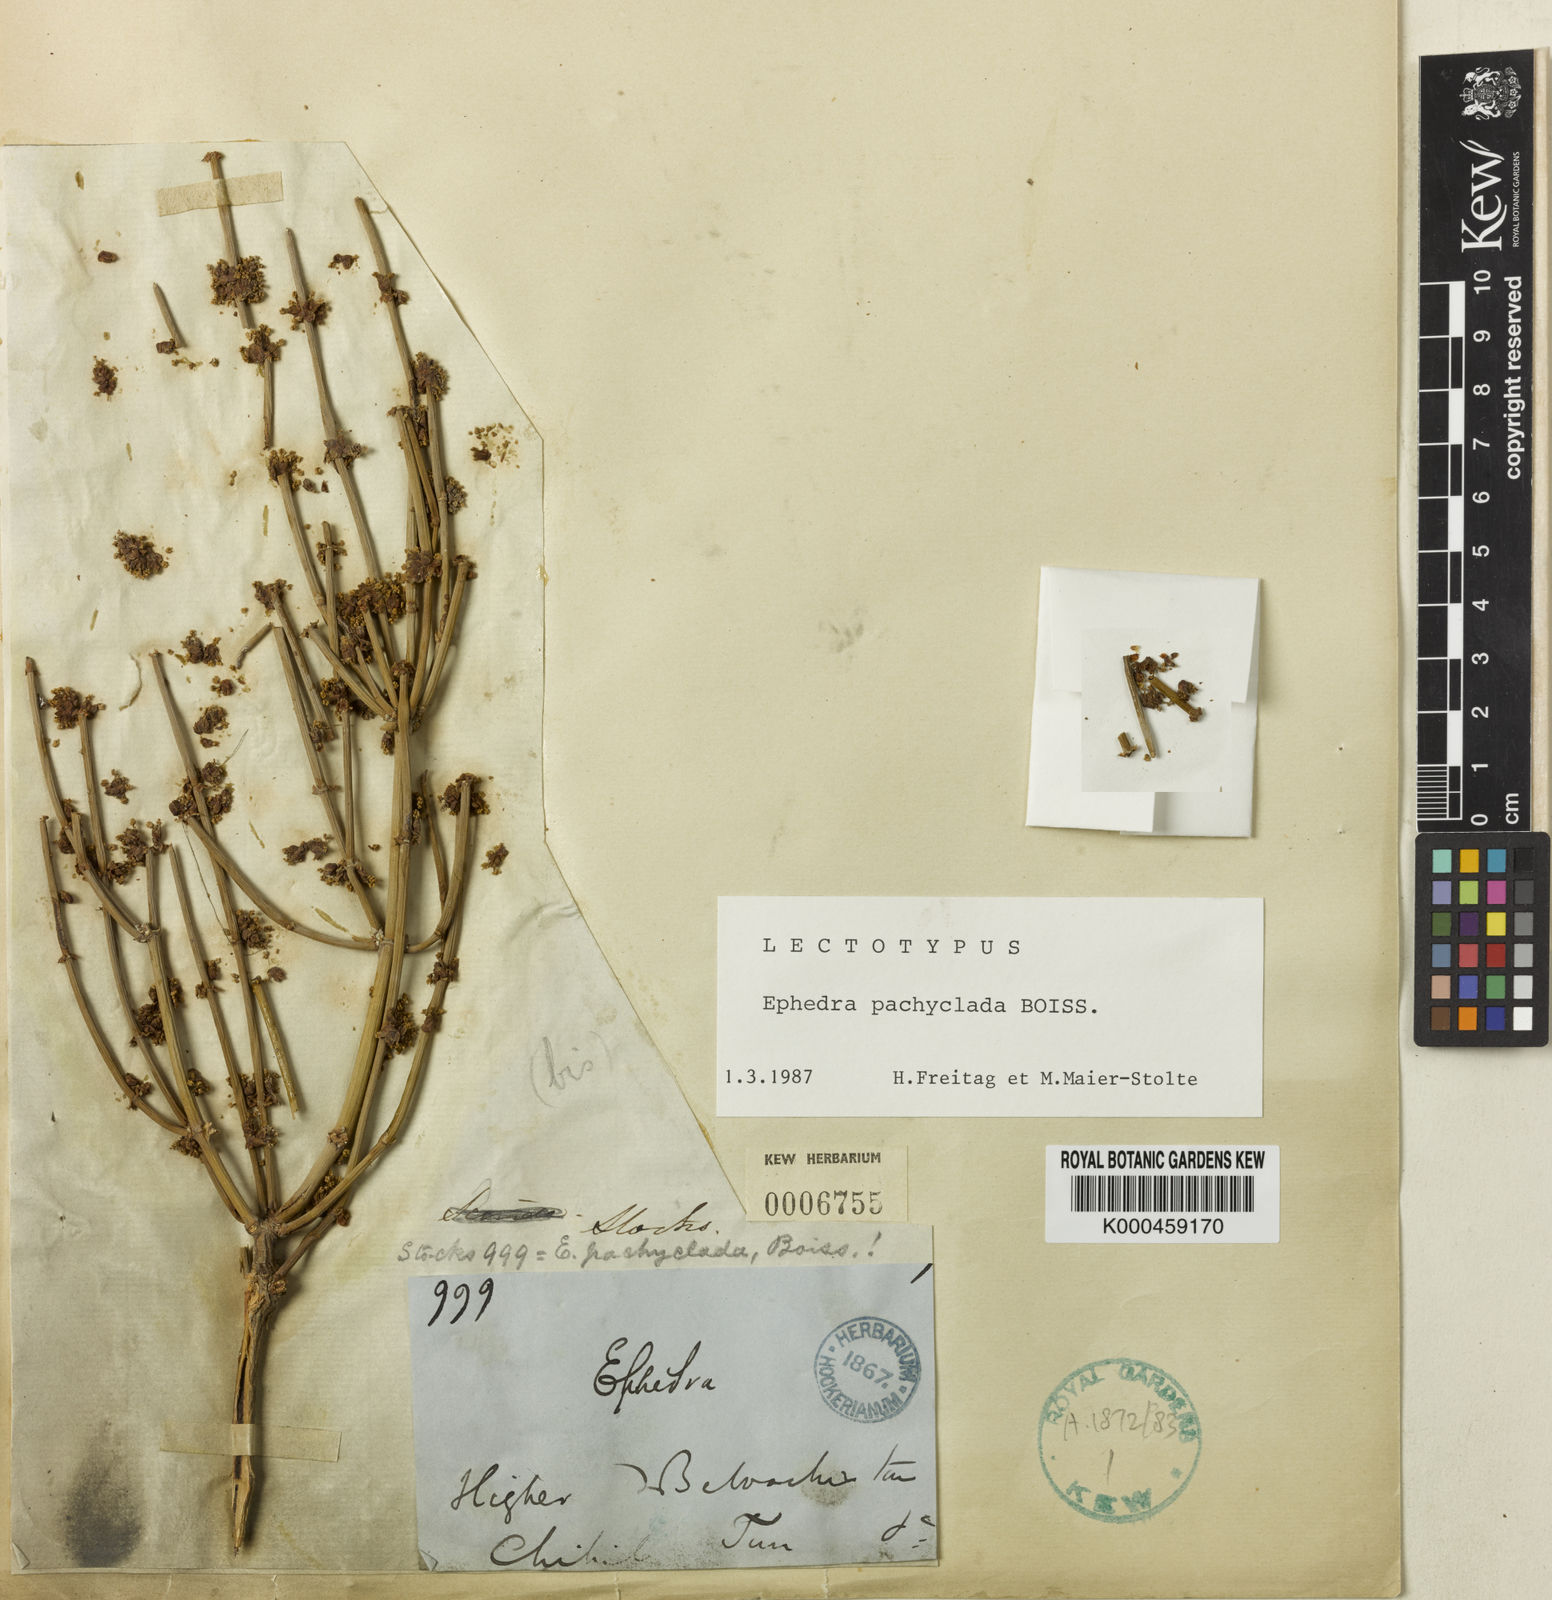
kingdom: Plantae
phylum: Tracheophyta
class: Gnetopsida
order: Ephedrales
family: Ephedraceae
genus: Ephedra
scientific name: Ephedra pachyclada
